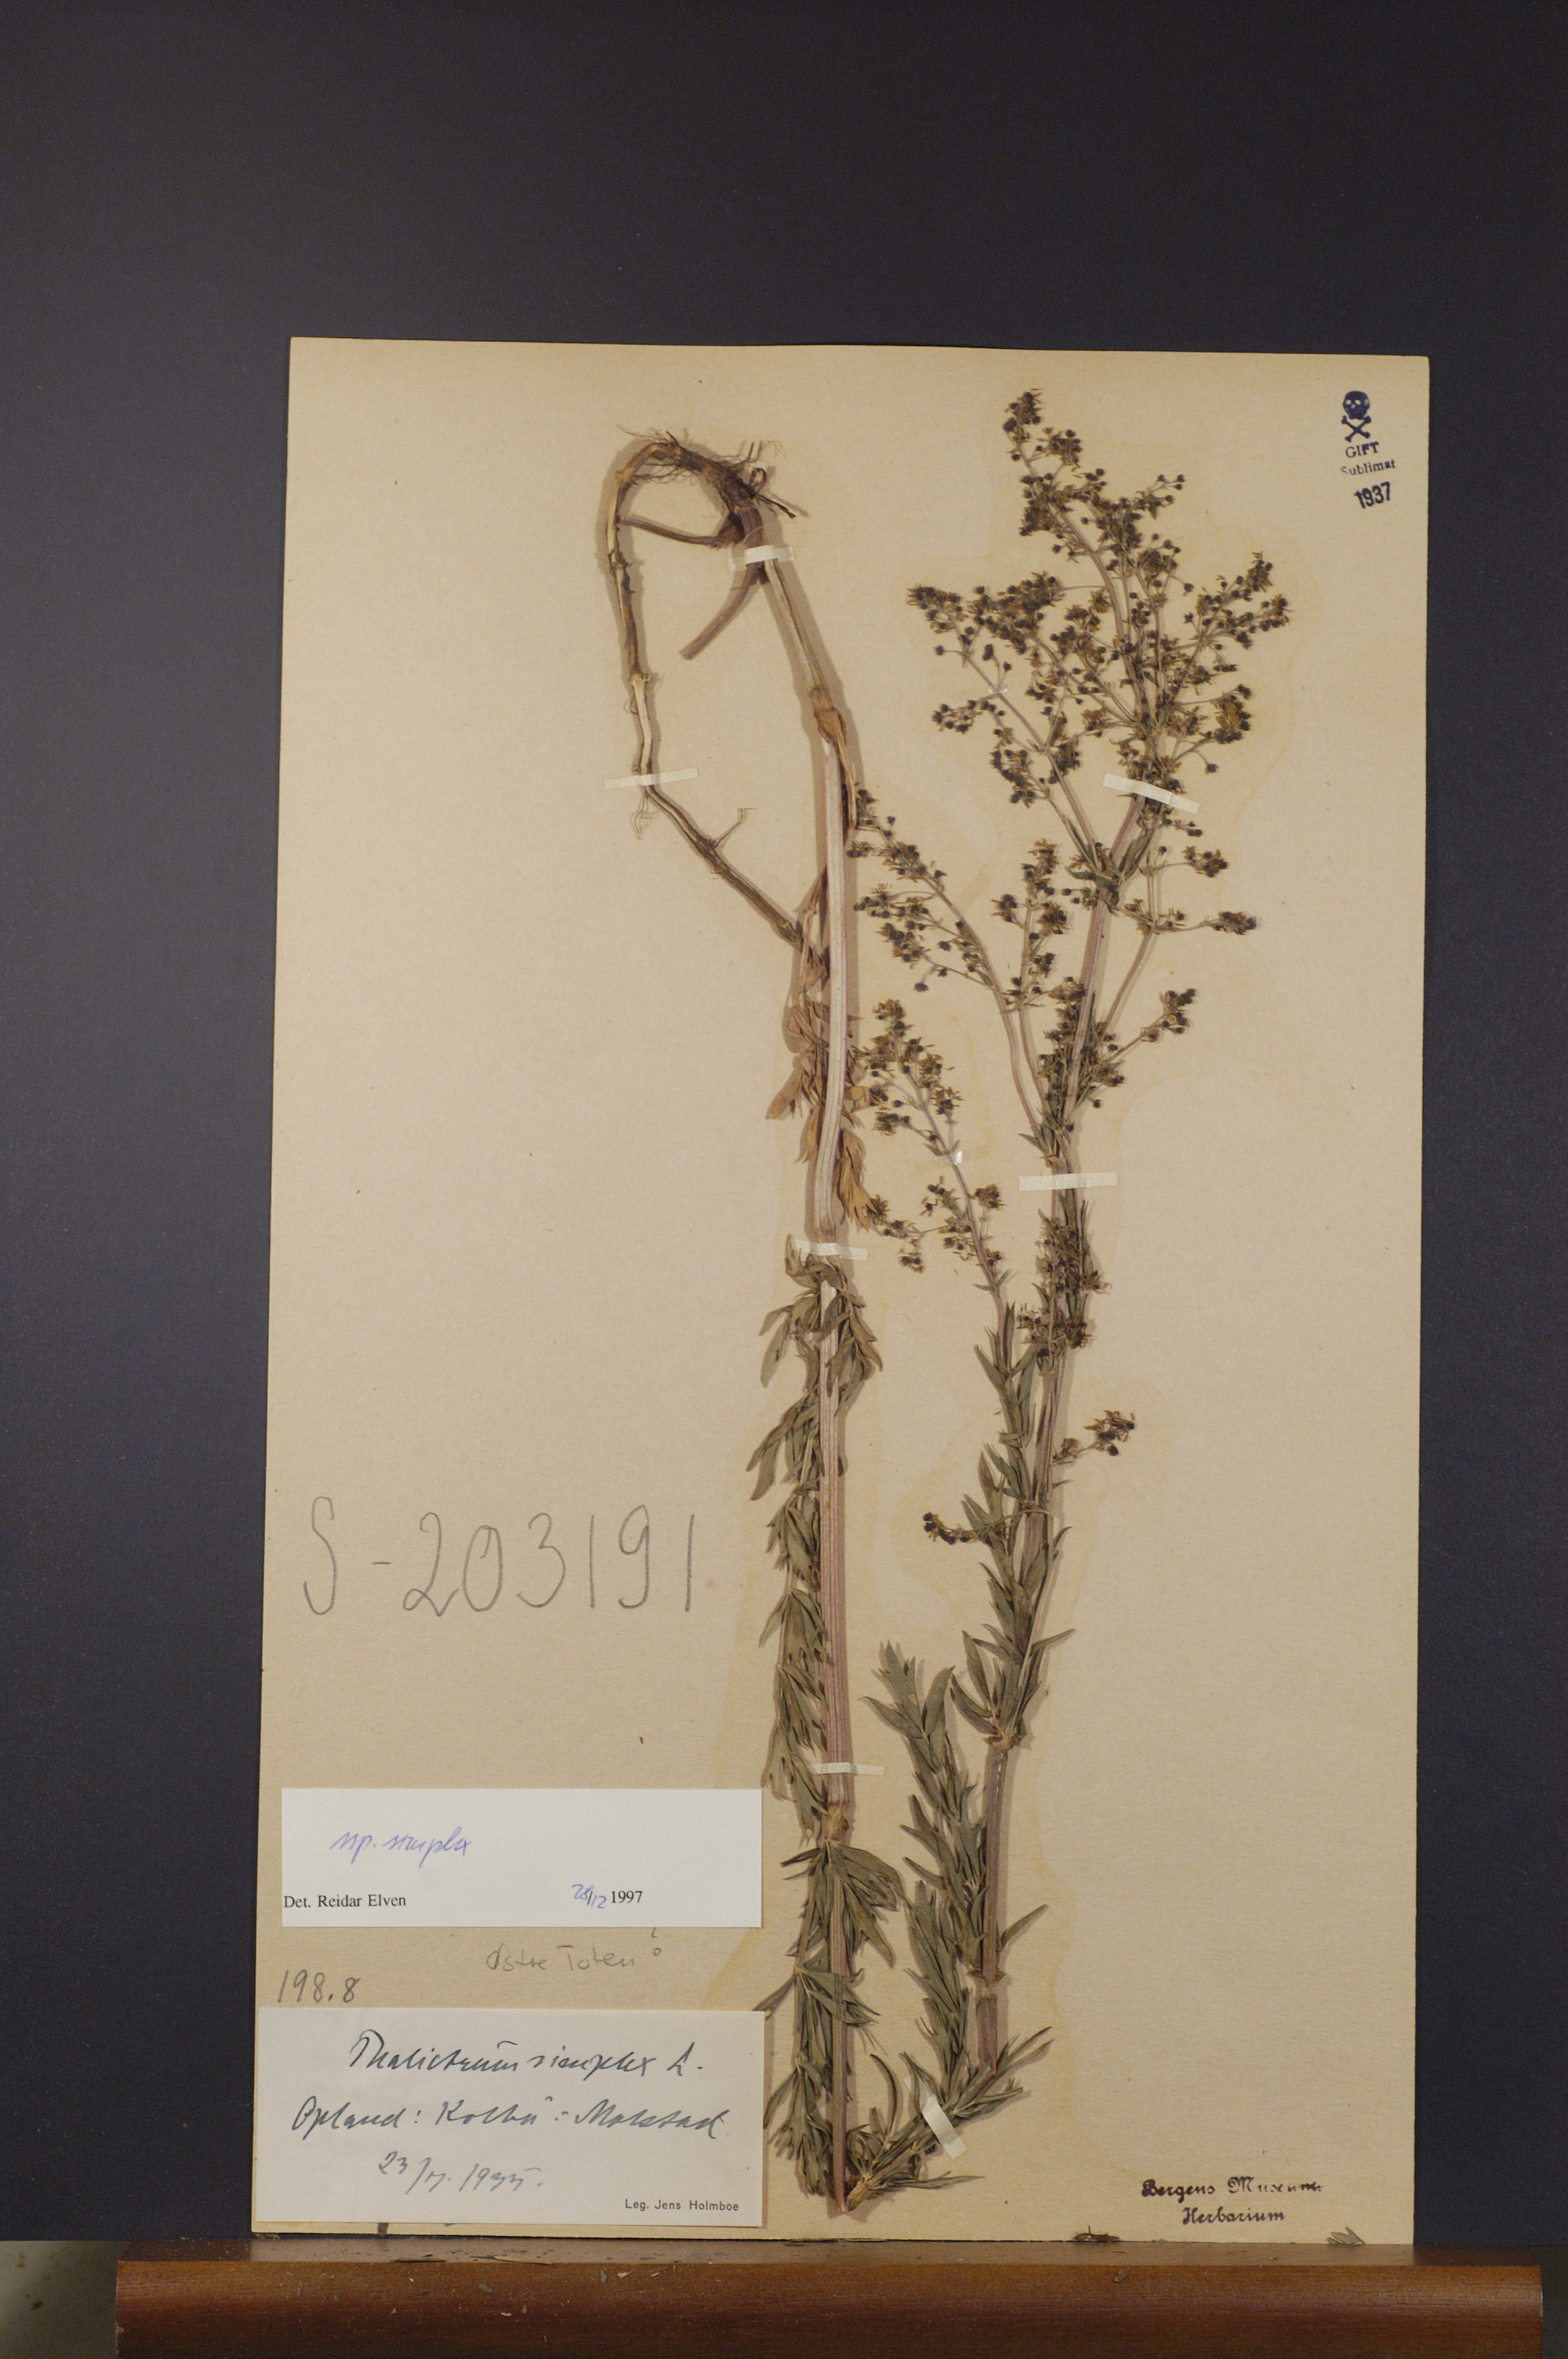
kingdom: Plantae
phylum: Tracheophyta
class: Magnoliopsida
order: Ranunculales
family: Ranunculaceae
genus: Thalictrum
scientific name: Thalictrum simplex
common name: Small meadow-rue
